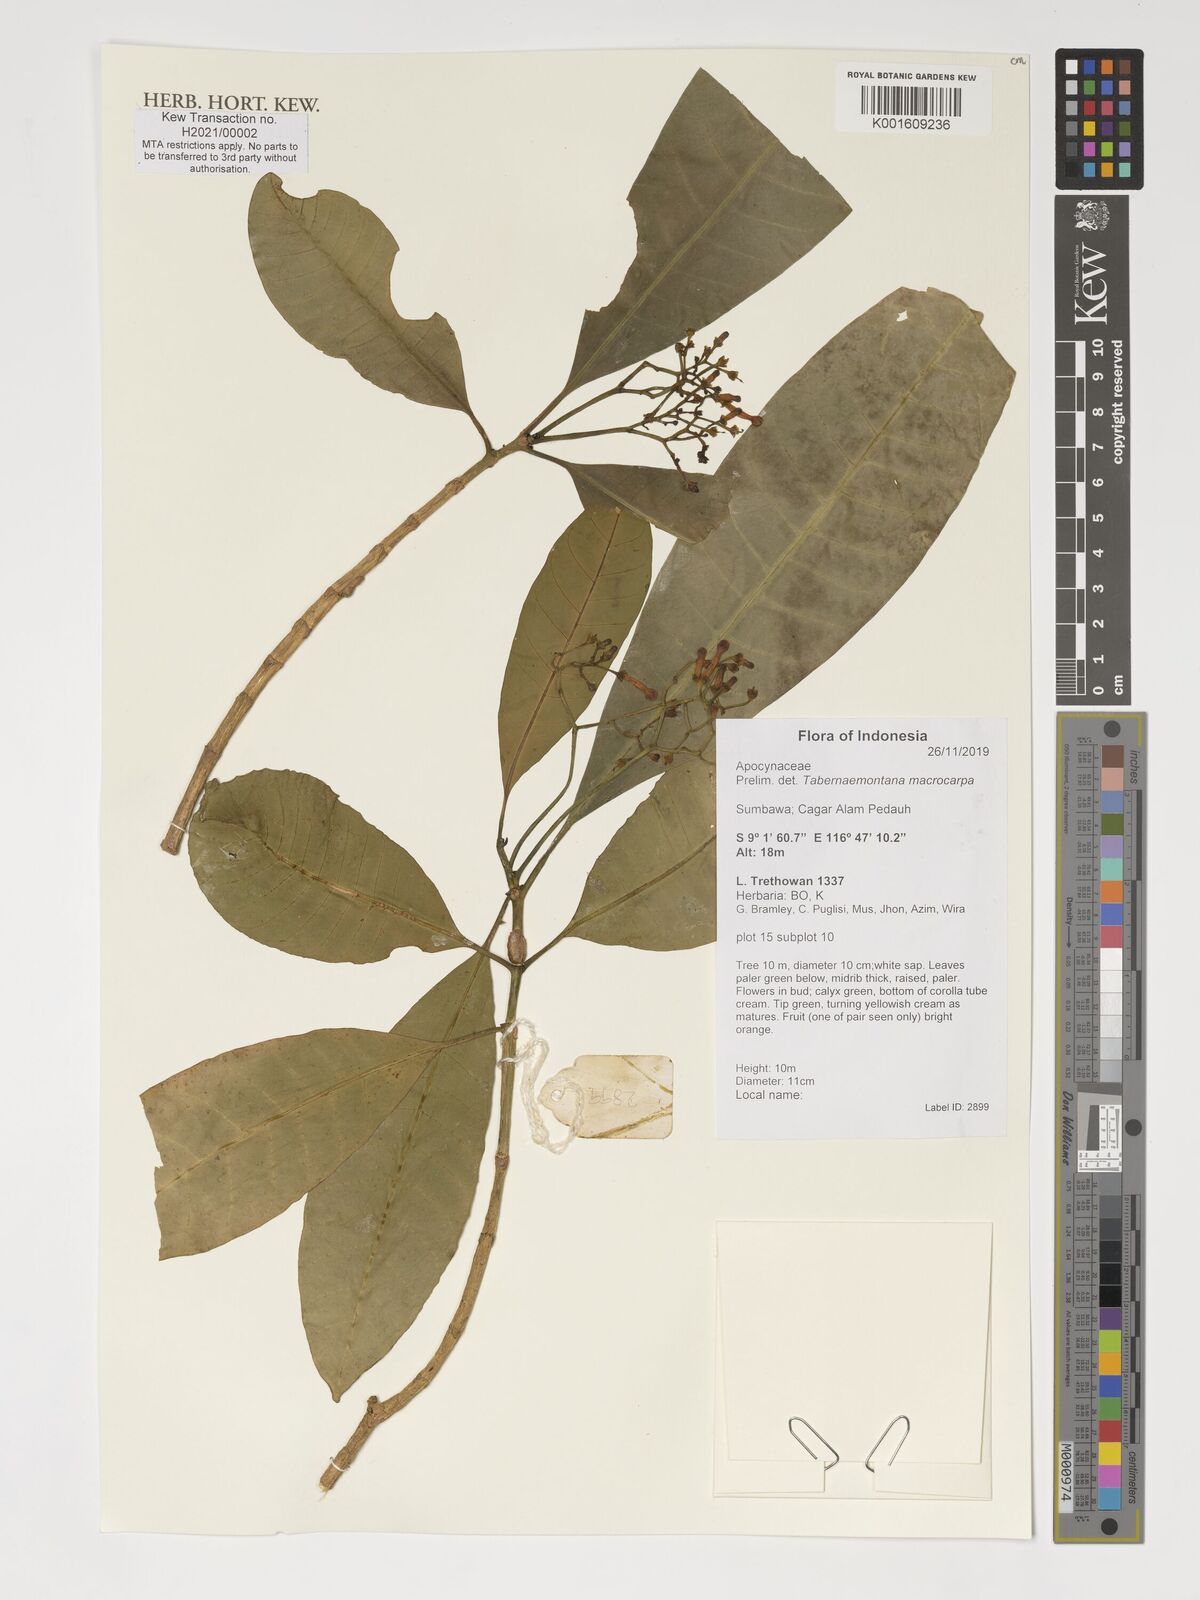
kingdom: Plantae
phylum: Tracheophyta
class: Magnoliopsida
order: Gentianales
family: Apocynaceae
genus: Tabernaemontana
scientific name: Tabernaemontana macrocarpa
